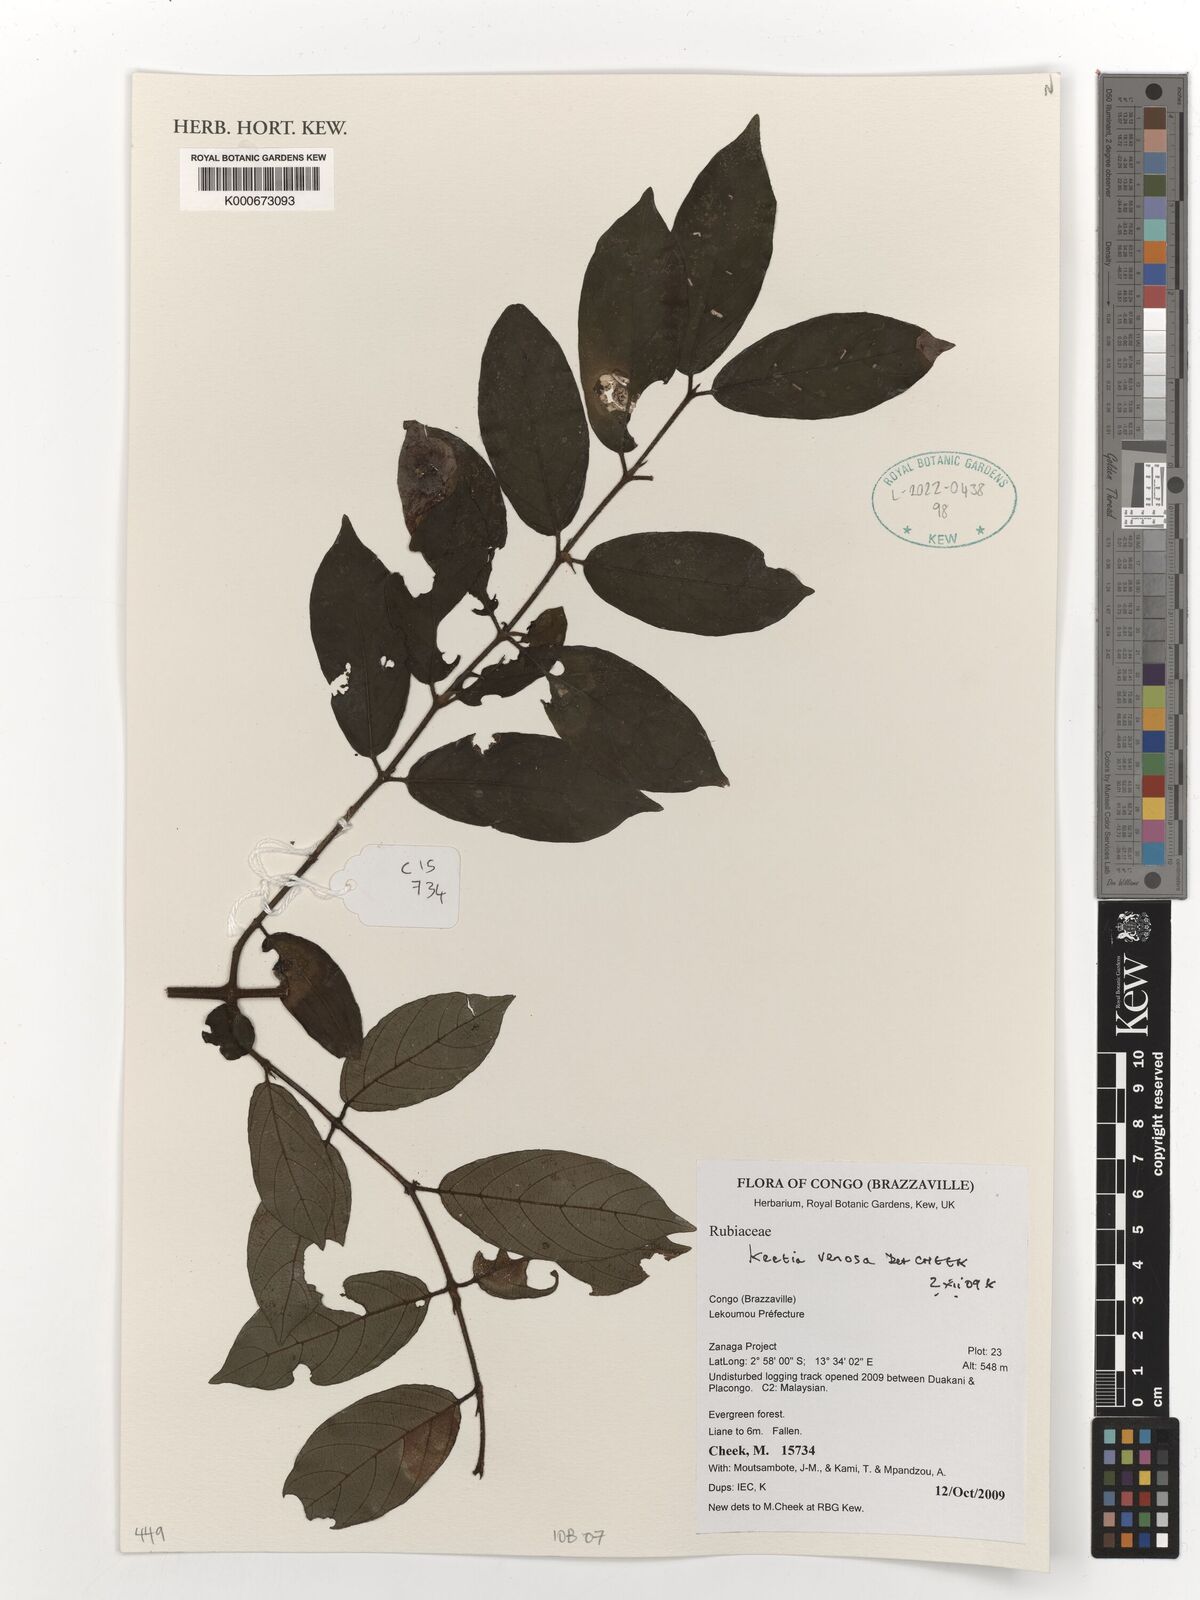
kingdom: Plantae
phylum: Tracheophyta
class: Magnoliopsida
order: Gentianales
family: Rubiaceae
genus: Keetia
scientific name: Keetia venosa
